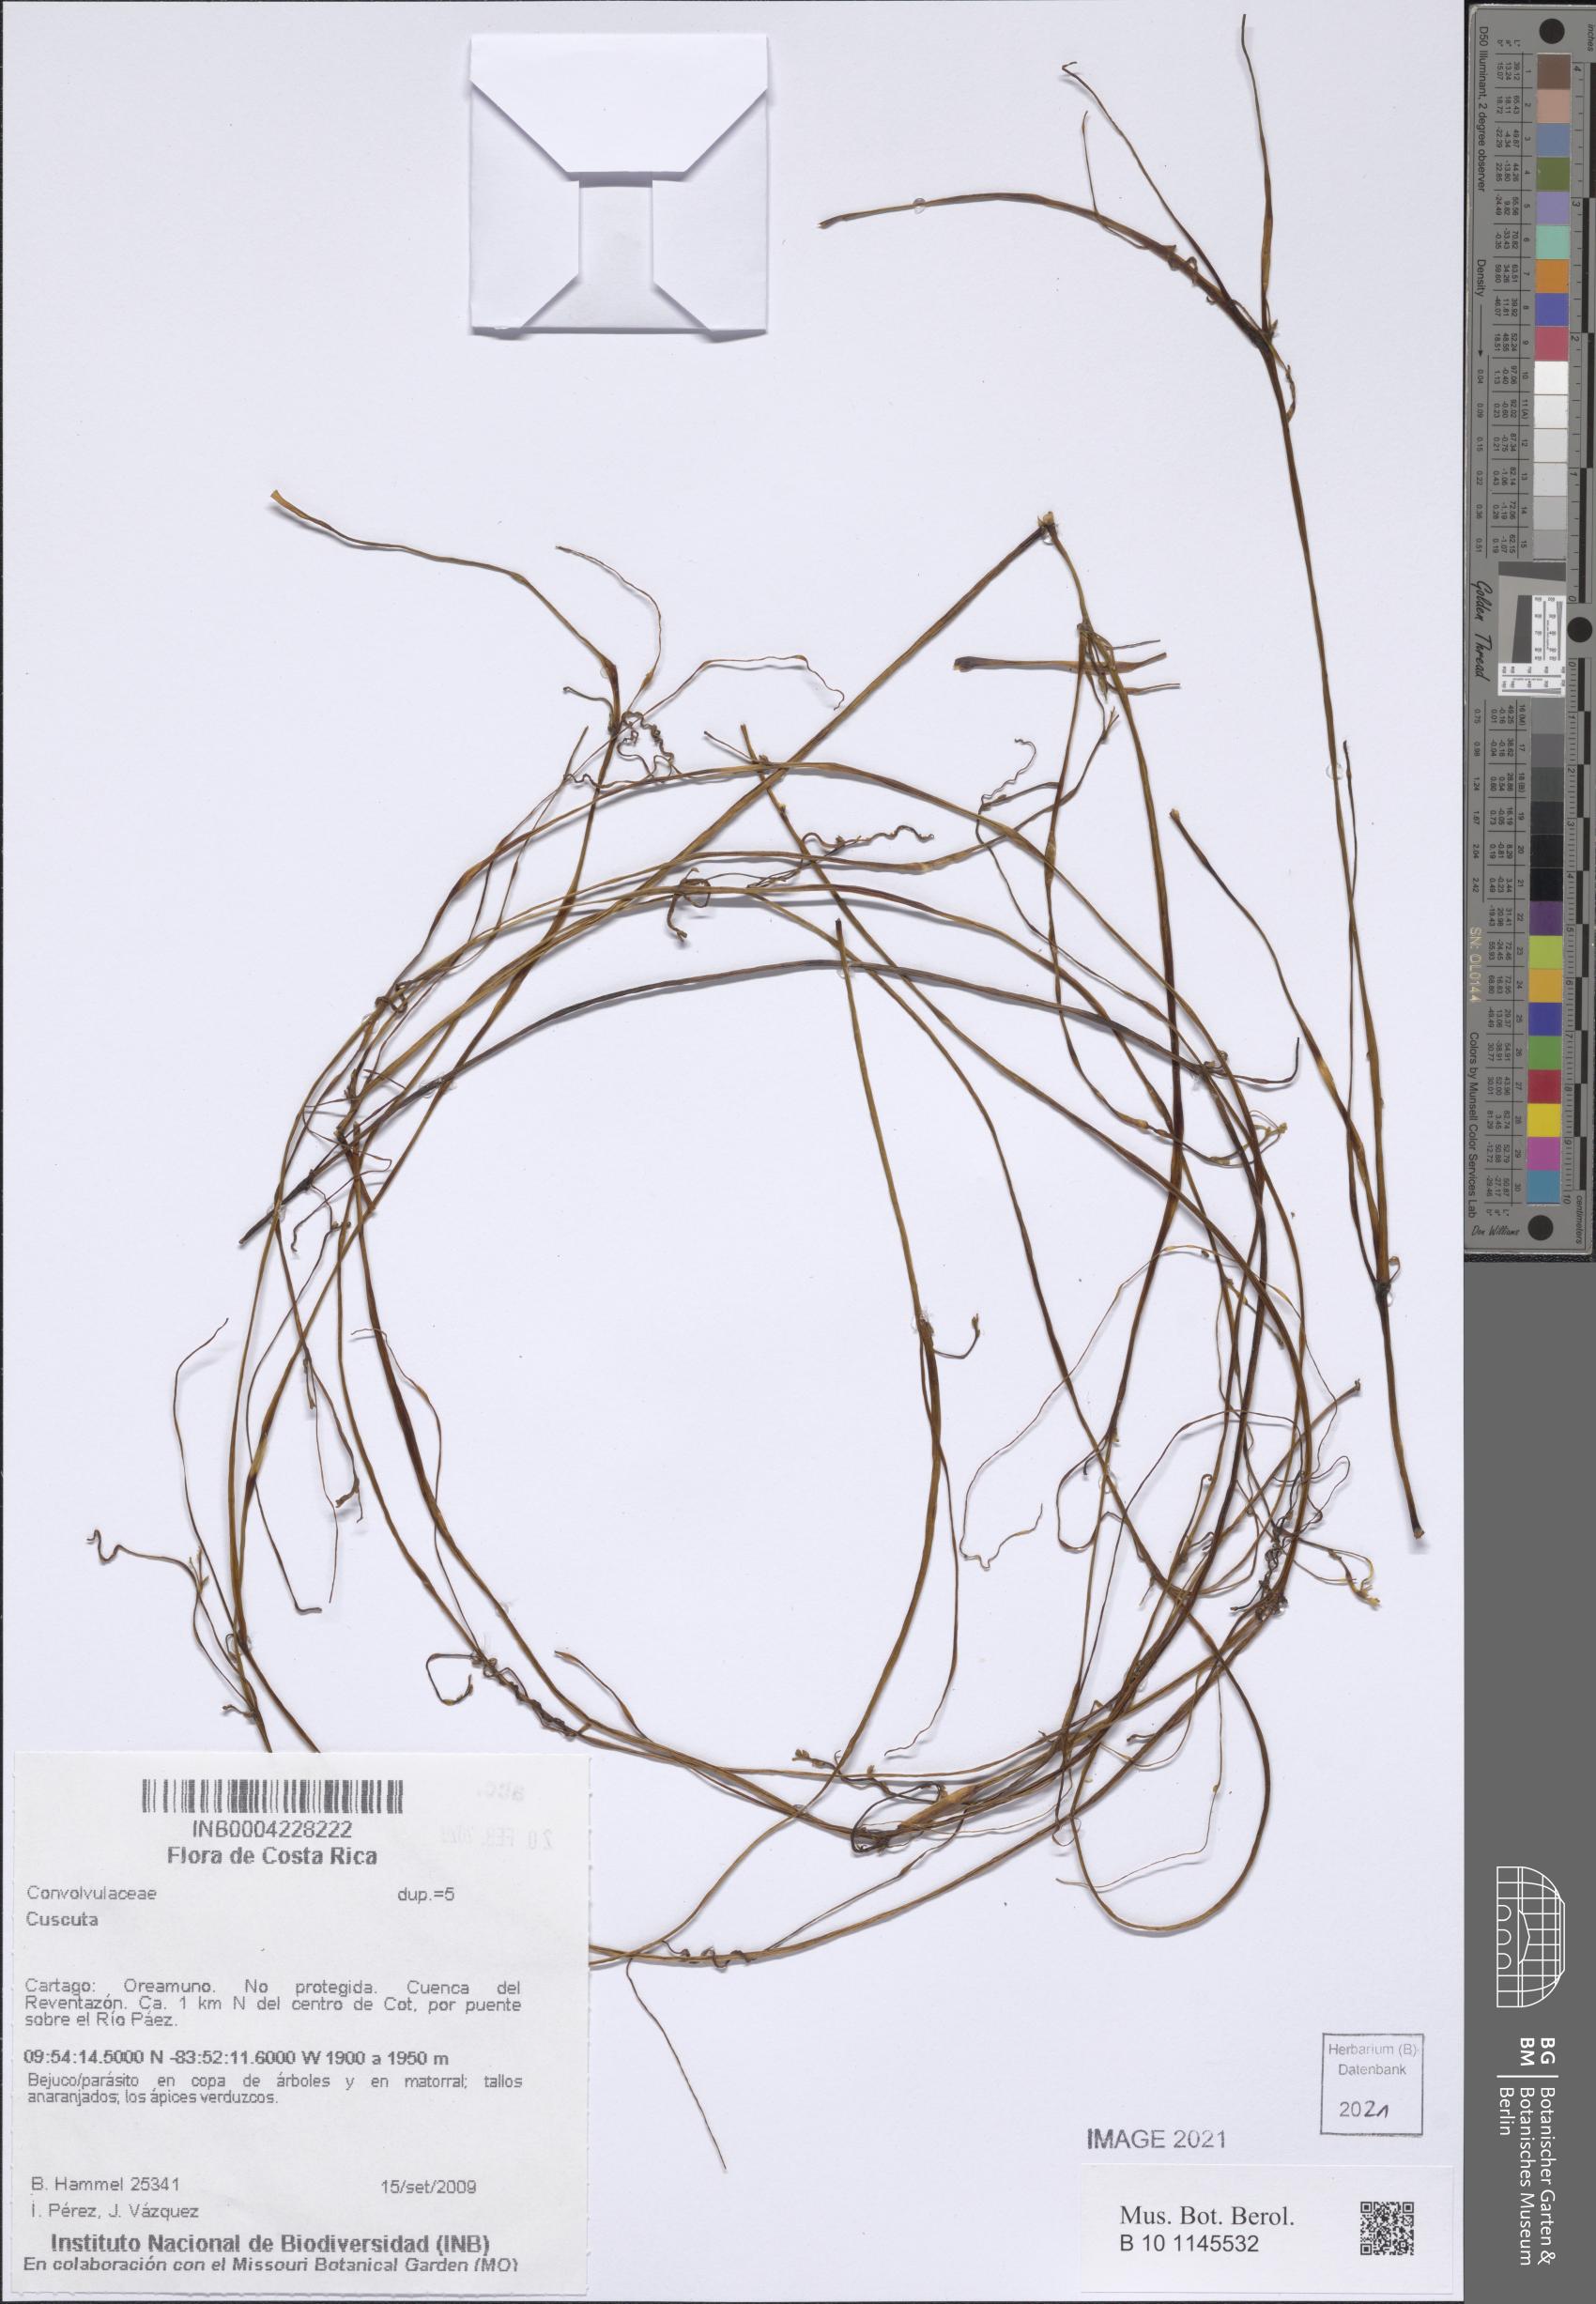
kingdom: Plantae
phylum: Tracheophyta
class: Magnoliopsida
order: Solanales
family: Convolvulaceae
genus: Cuscuta
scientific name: Cuscuta
